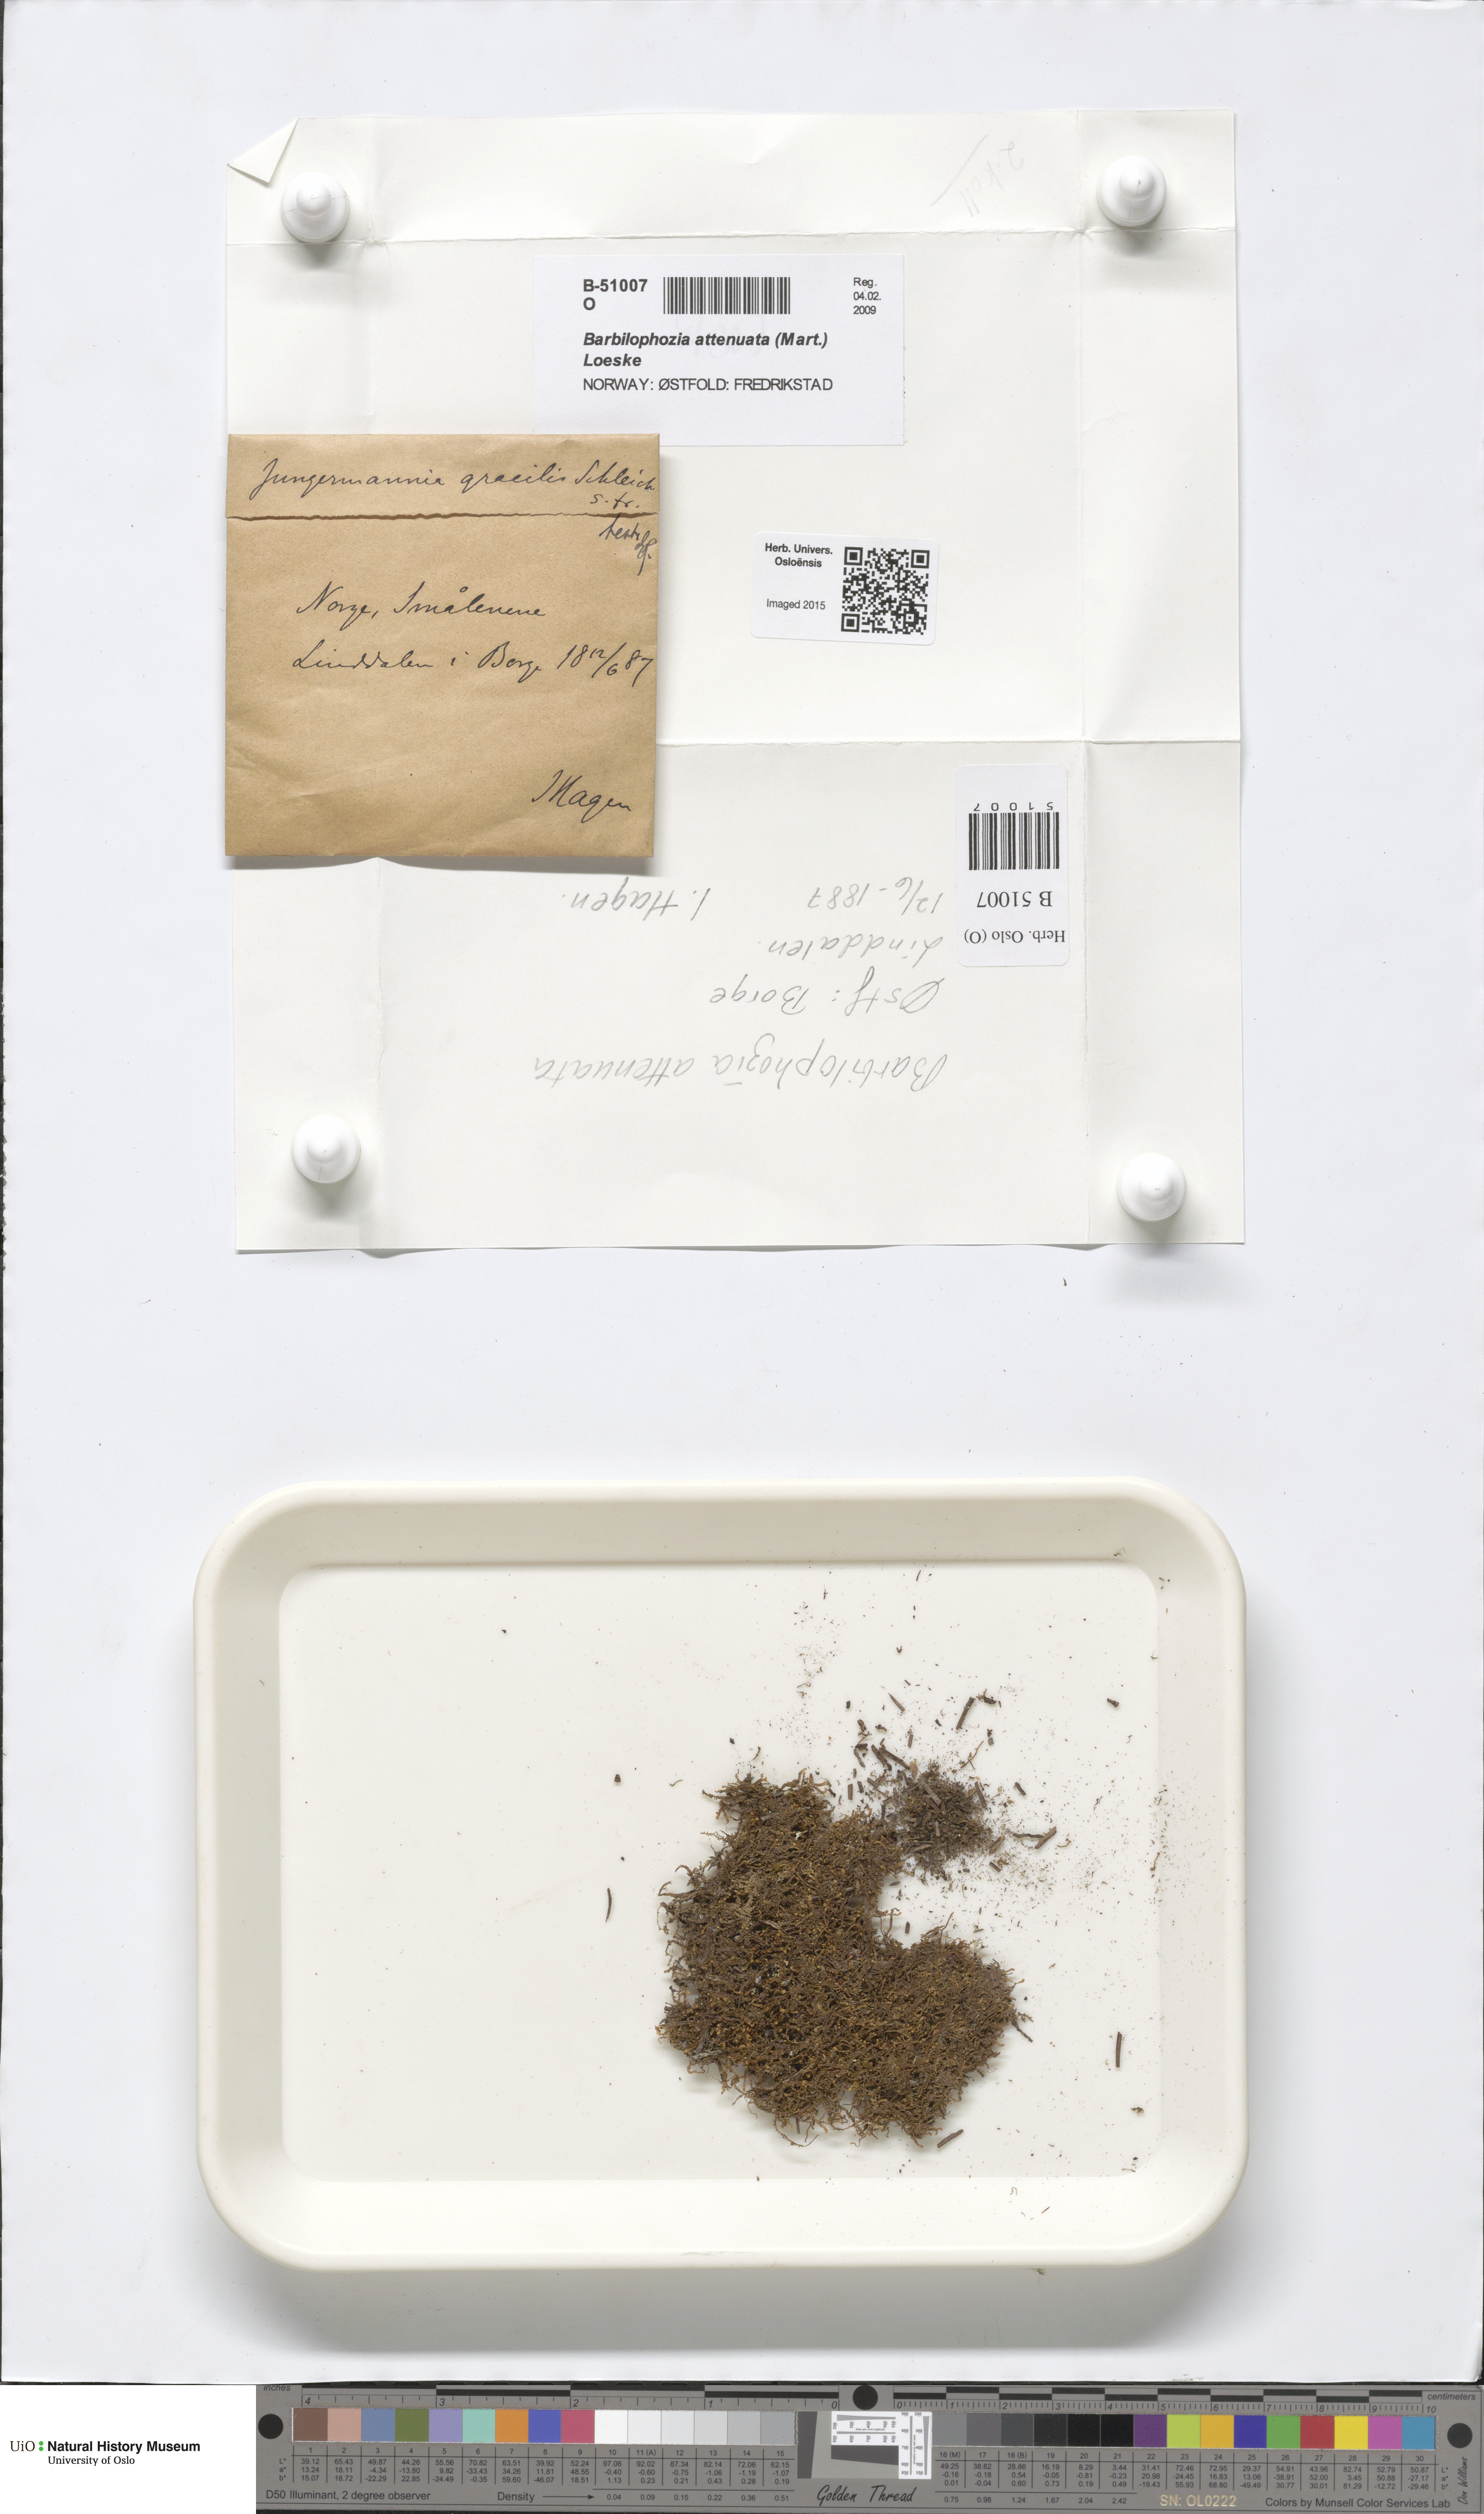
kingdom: Plantae
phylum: Marchantiophyta
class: Jungermanniopsida
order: Jungermanniales
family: Anastrophyllaceae
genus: Neoorthocaulis
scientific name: Neoorthocaulis attenuatus
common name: Trunk pawwort
